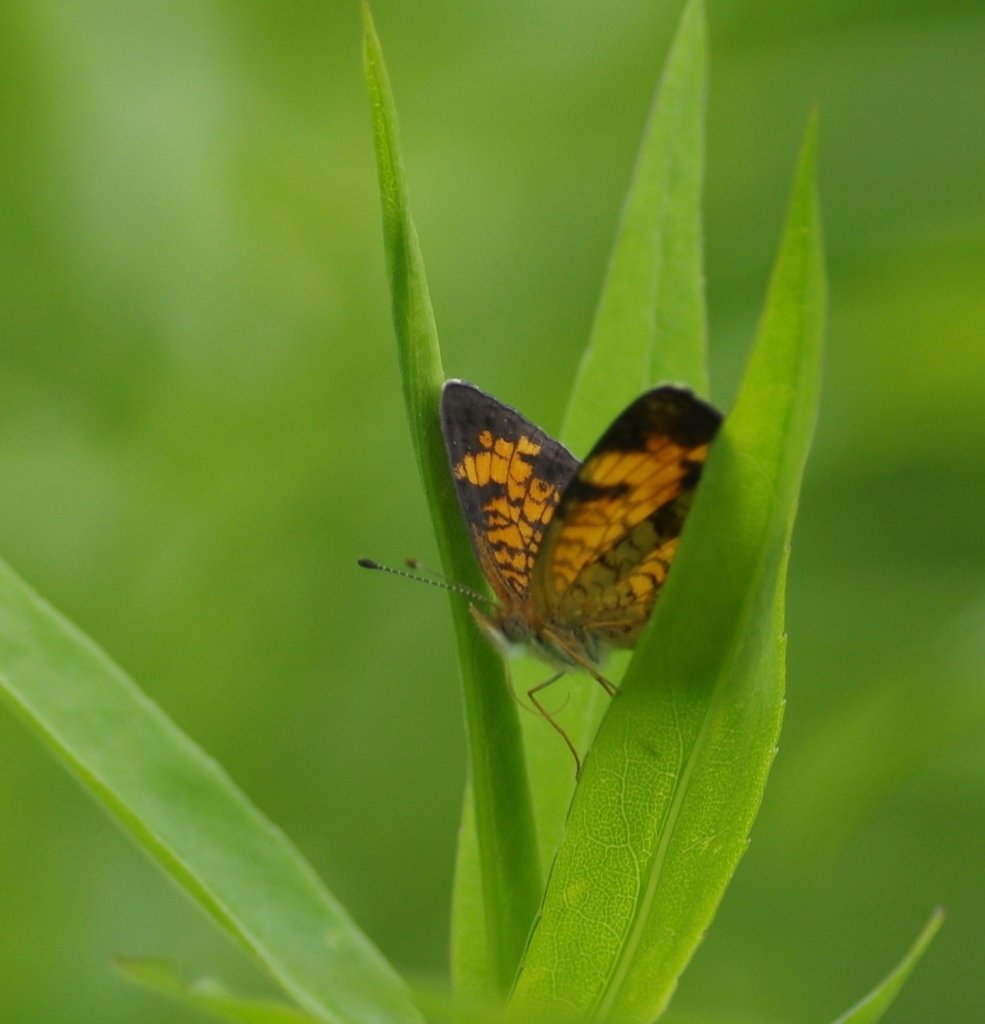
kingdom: Animalia
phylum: Arthropoda
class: Insecta
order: Lepidoptera
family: Nymphalidae
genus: Phyciodes
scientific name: Phyciodes tharos
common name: Pearl Crescent
